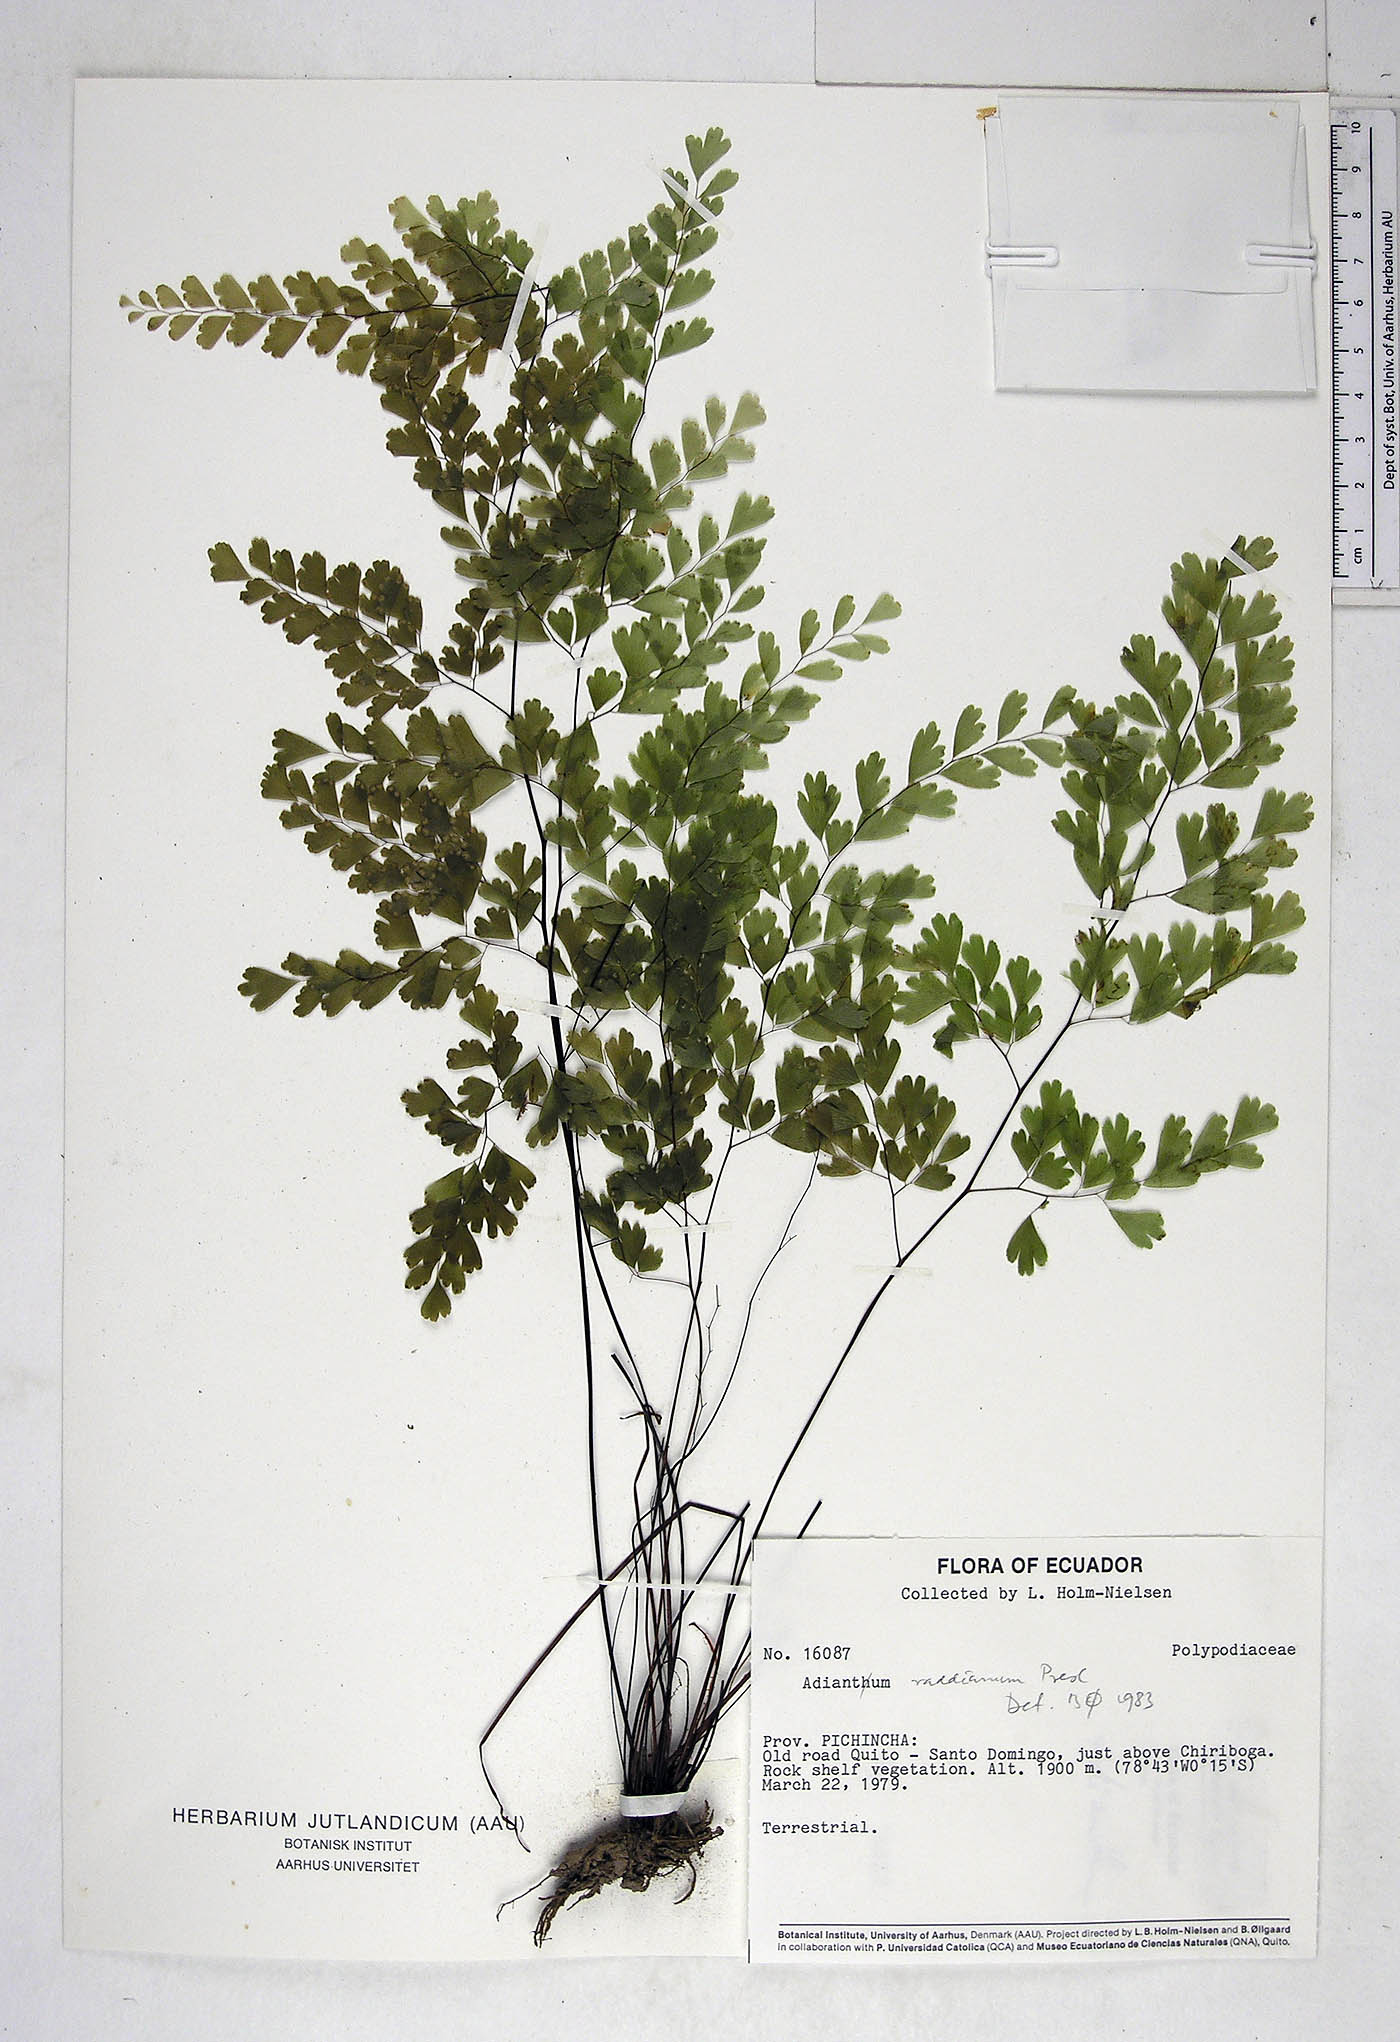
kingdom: Plantae
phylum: Tracheophyta
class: Polypodiopsida
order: Polypodiales
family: Pteridaceae
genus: Adiantum
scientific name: Adiantum raddianum
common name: Delta maidenhair fern
